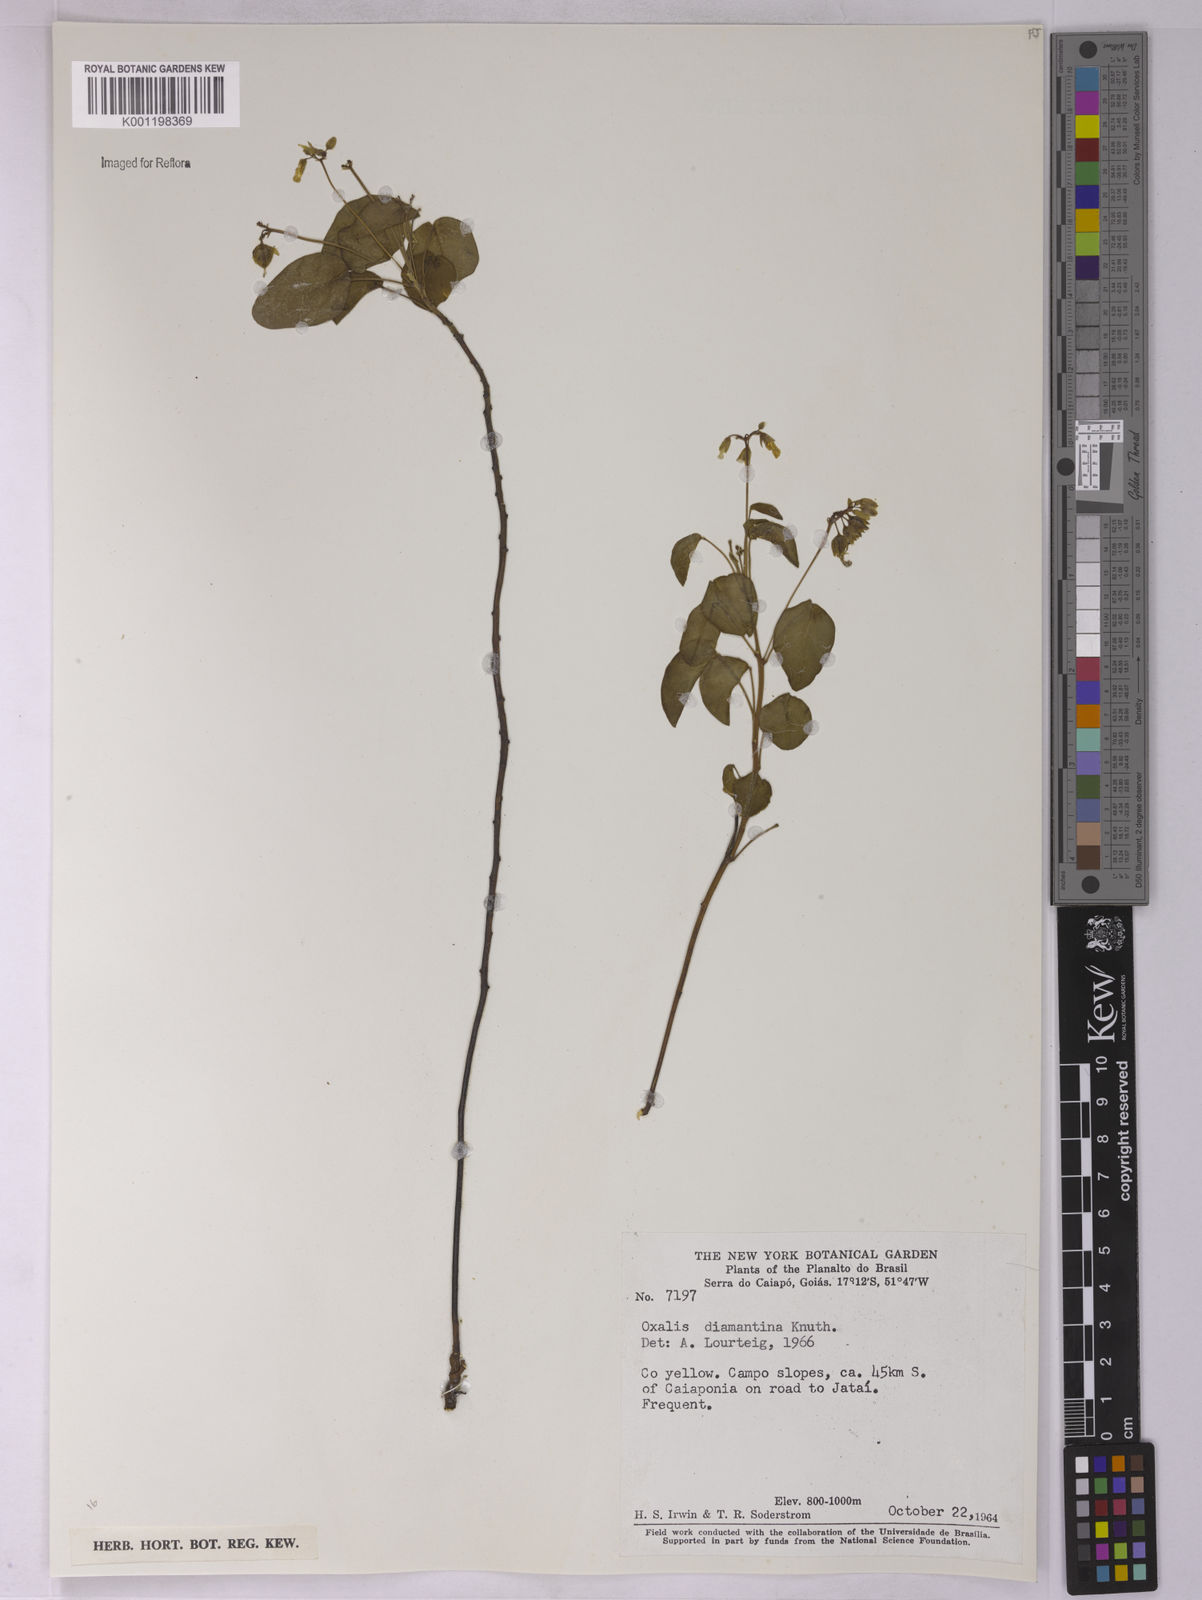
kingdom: Plantae
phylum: Tracheophyta
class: Magnoliopsida
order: Oxalidales
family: Oxalidaceae
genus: Oxalis
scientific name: Oxalis diamantinae
